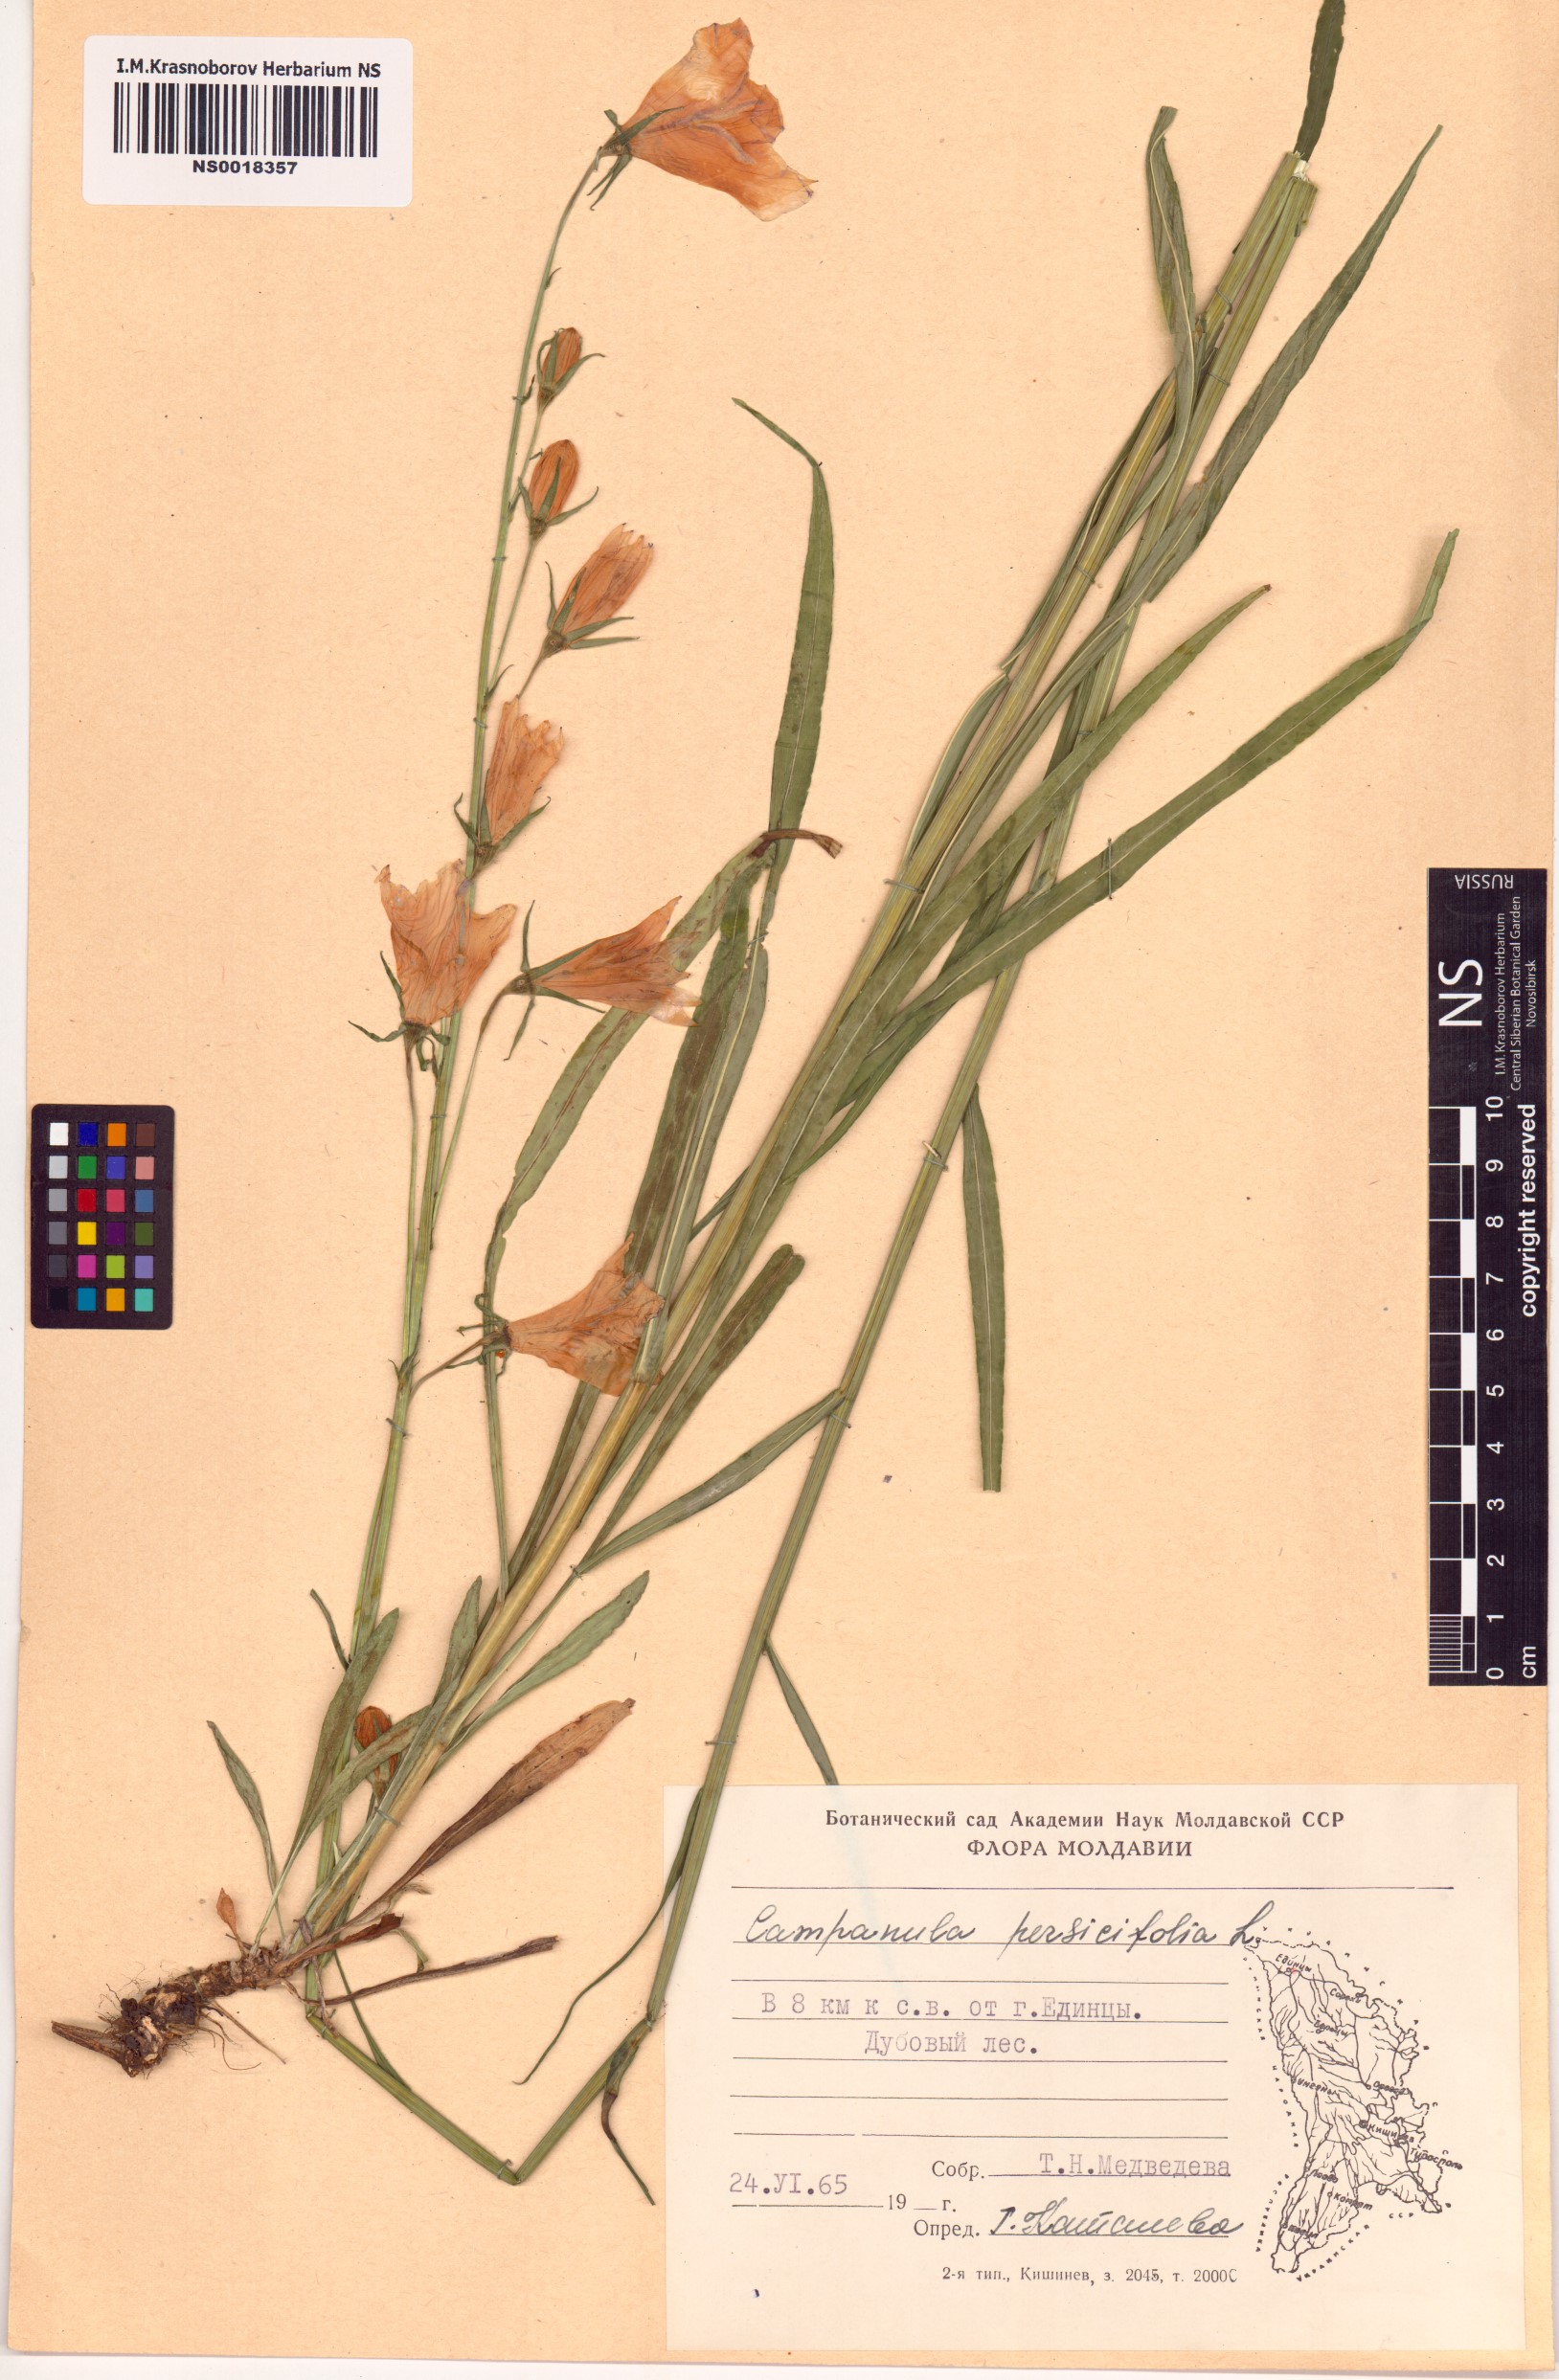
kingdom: Plantae
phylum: Tracheophyta
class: Magnoliopsida
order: Asterales
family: Campanulaceae
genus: Campanula
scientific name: Campanula persicifolia
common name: Peach-leaved bellflower
